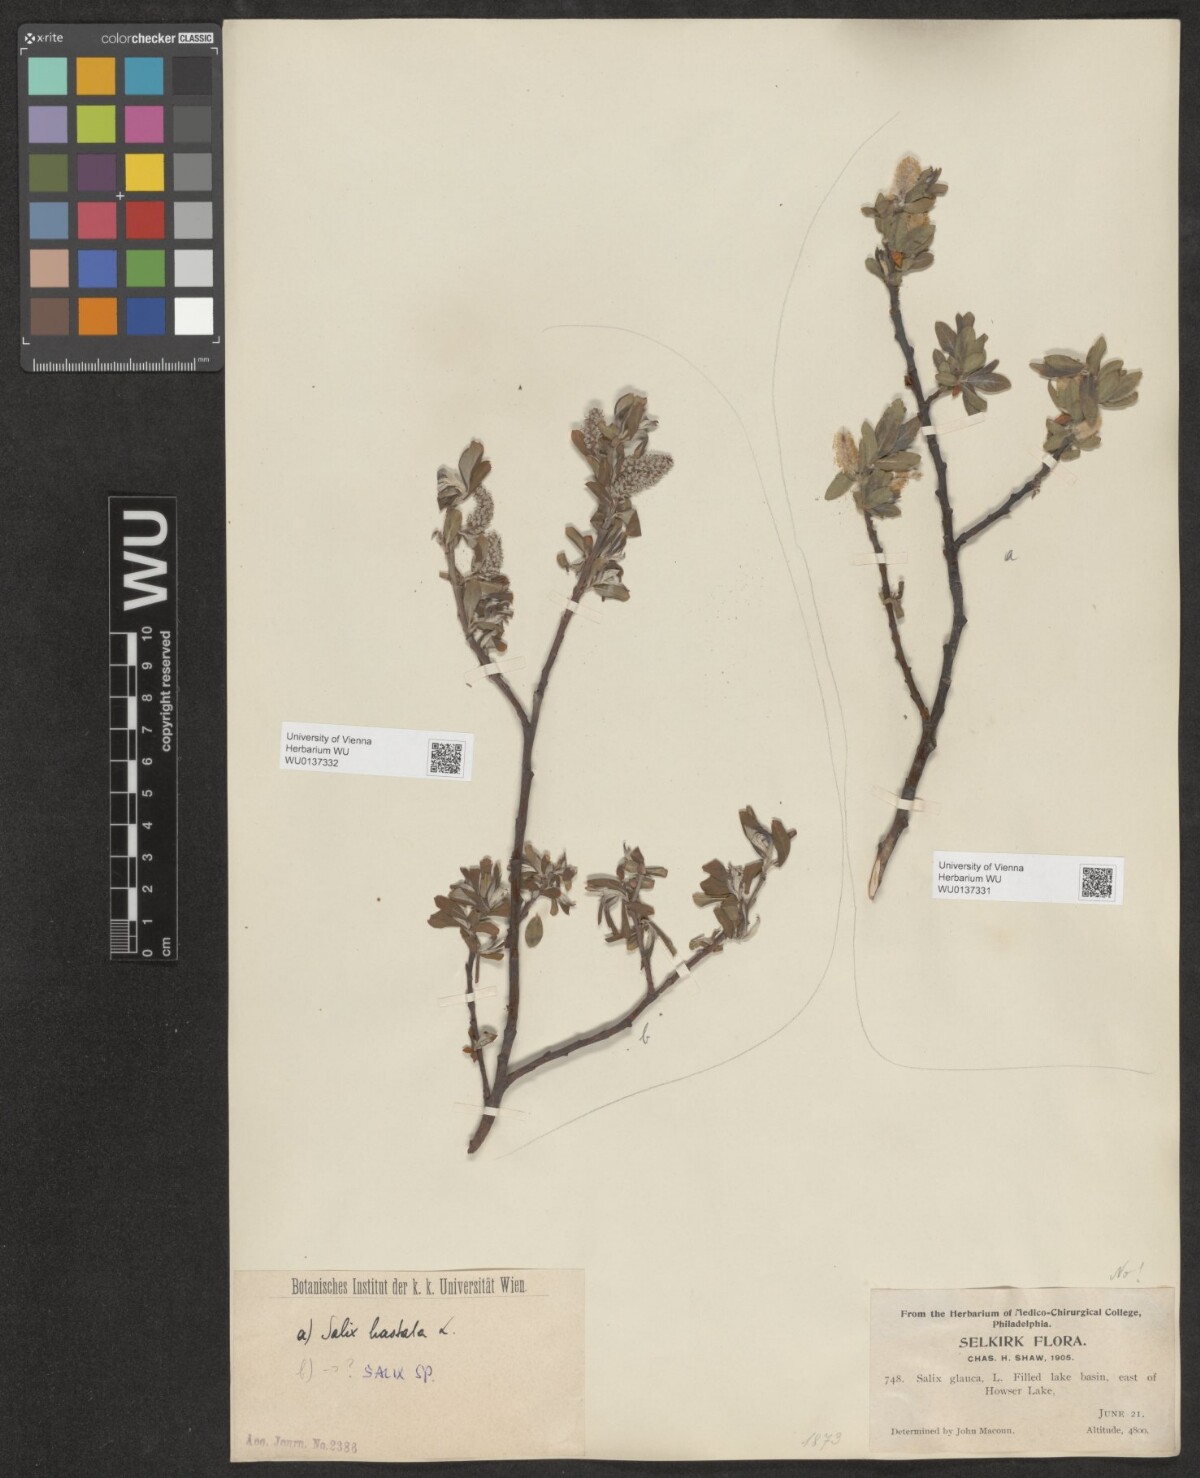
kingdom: Plantae
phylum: Tracheophyta
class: Magnoliopsida
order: Malpighiales
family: Salicaceae
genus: Salix
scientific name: Salix hastata
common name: Halberd willow
